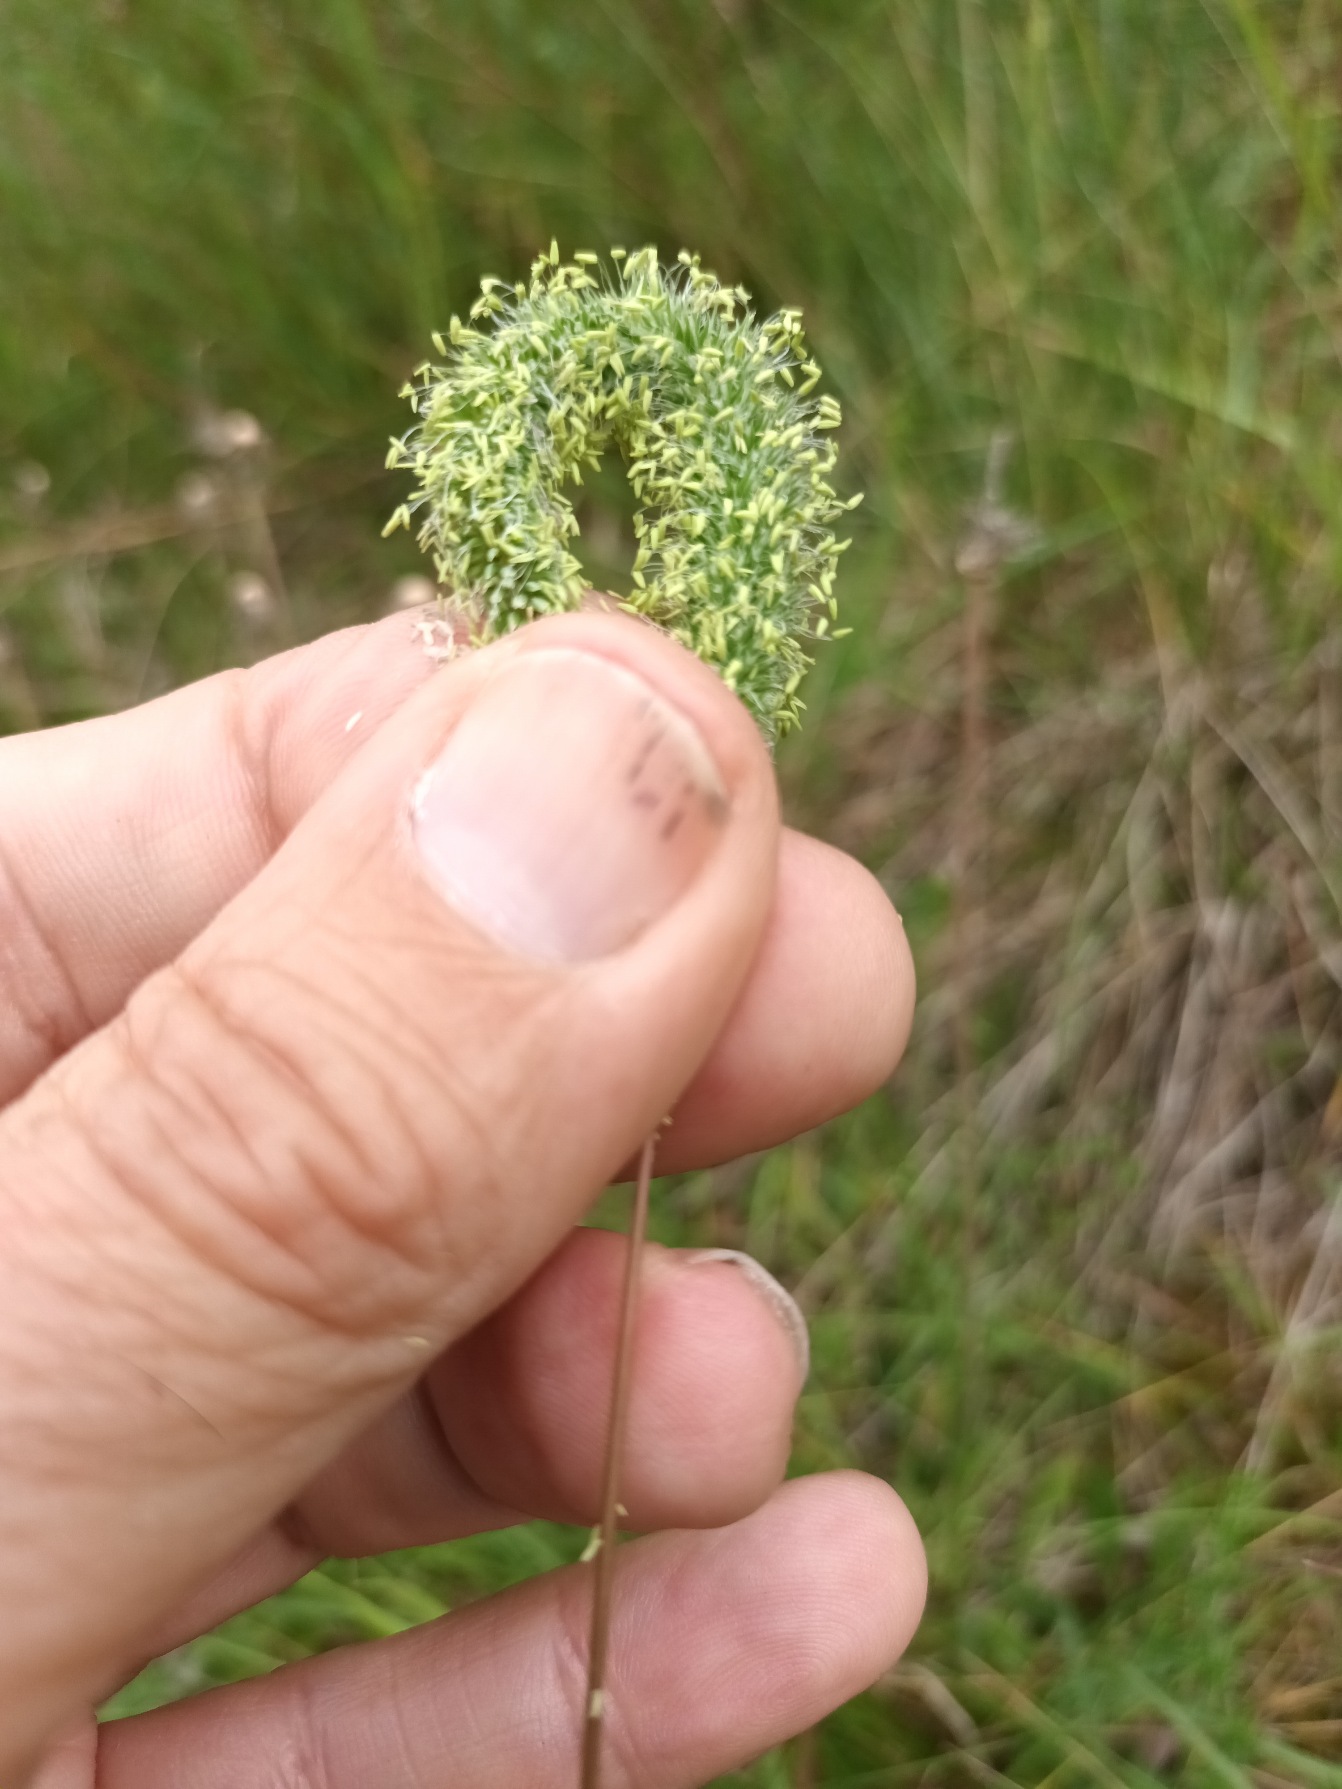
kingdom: Plantae
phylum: Tracheophyta
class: Liliopsida
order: Poales
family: Poaceae
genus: Phleum
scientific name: Phleum pratense
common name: Eng-rottehale
